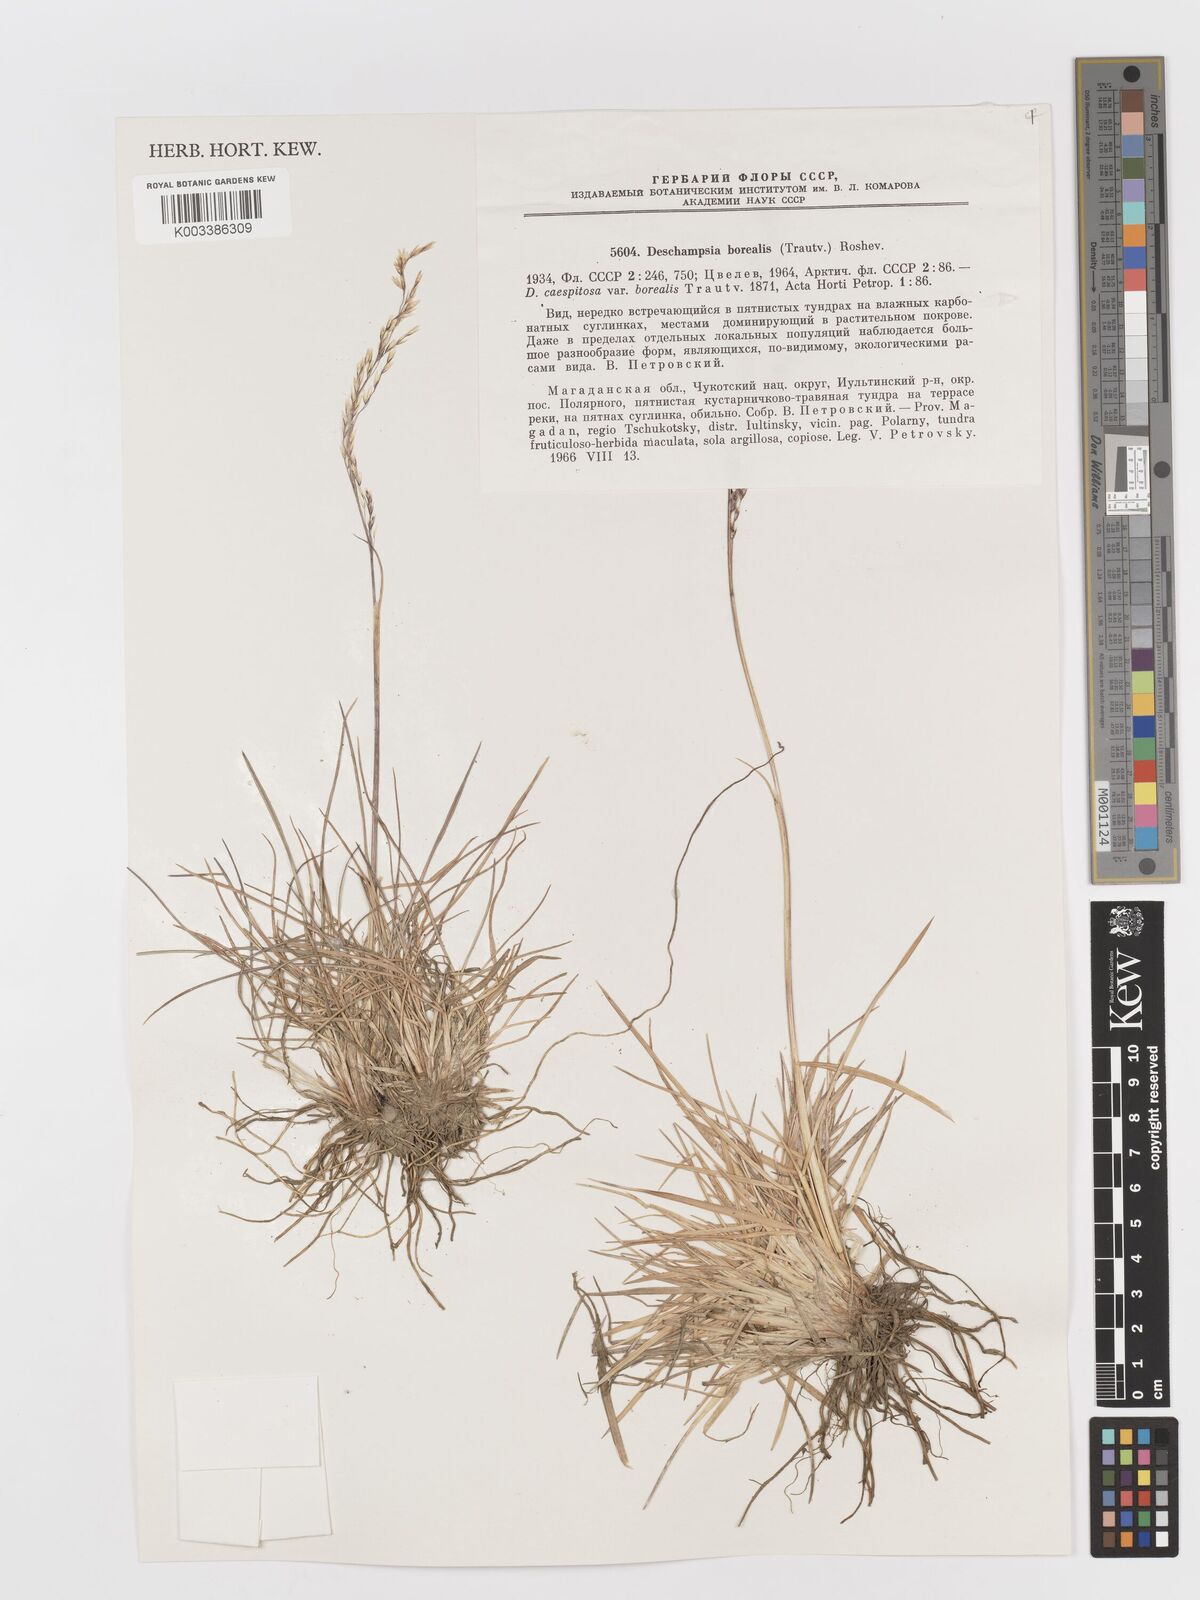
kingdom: Plantae
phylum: Tracheophyta
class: Liliopsida
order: Poales
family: Poaceae
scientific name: Poaceae
